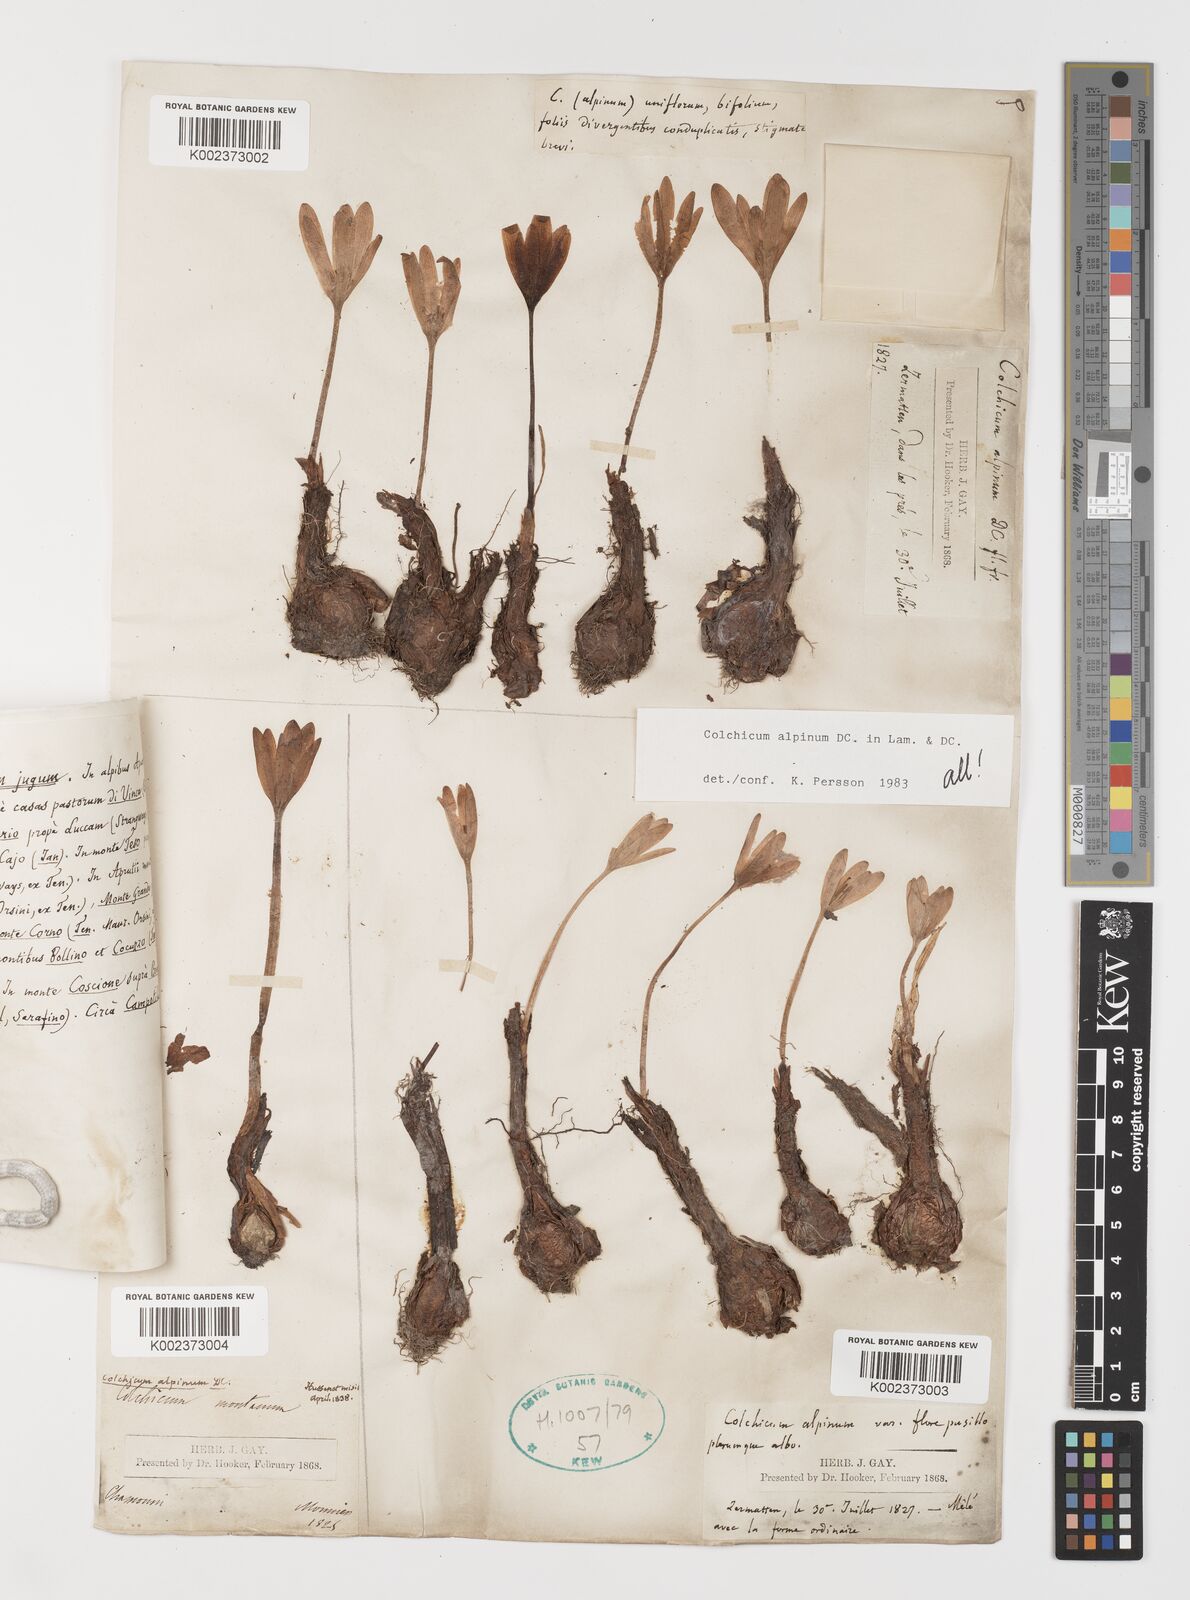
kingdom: Plantae
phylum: Tracheophyta
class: Liliopsida
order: Liliales
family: Colchicaceae
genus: Colchicum
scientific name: Colchicum alpinum
